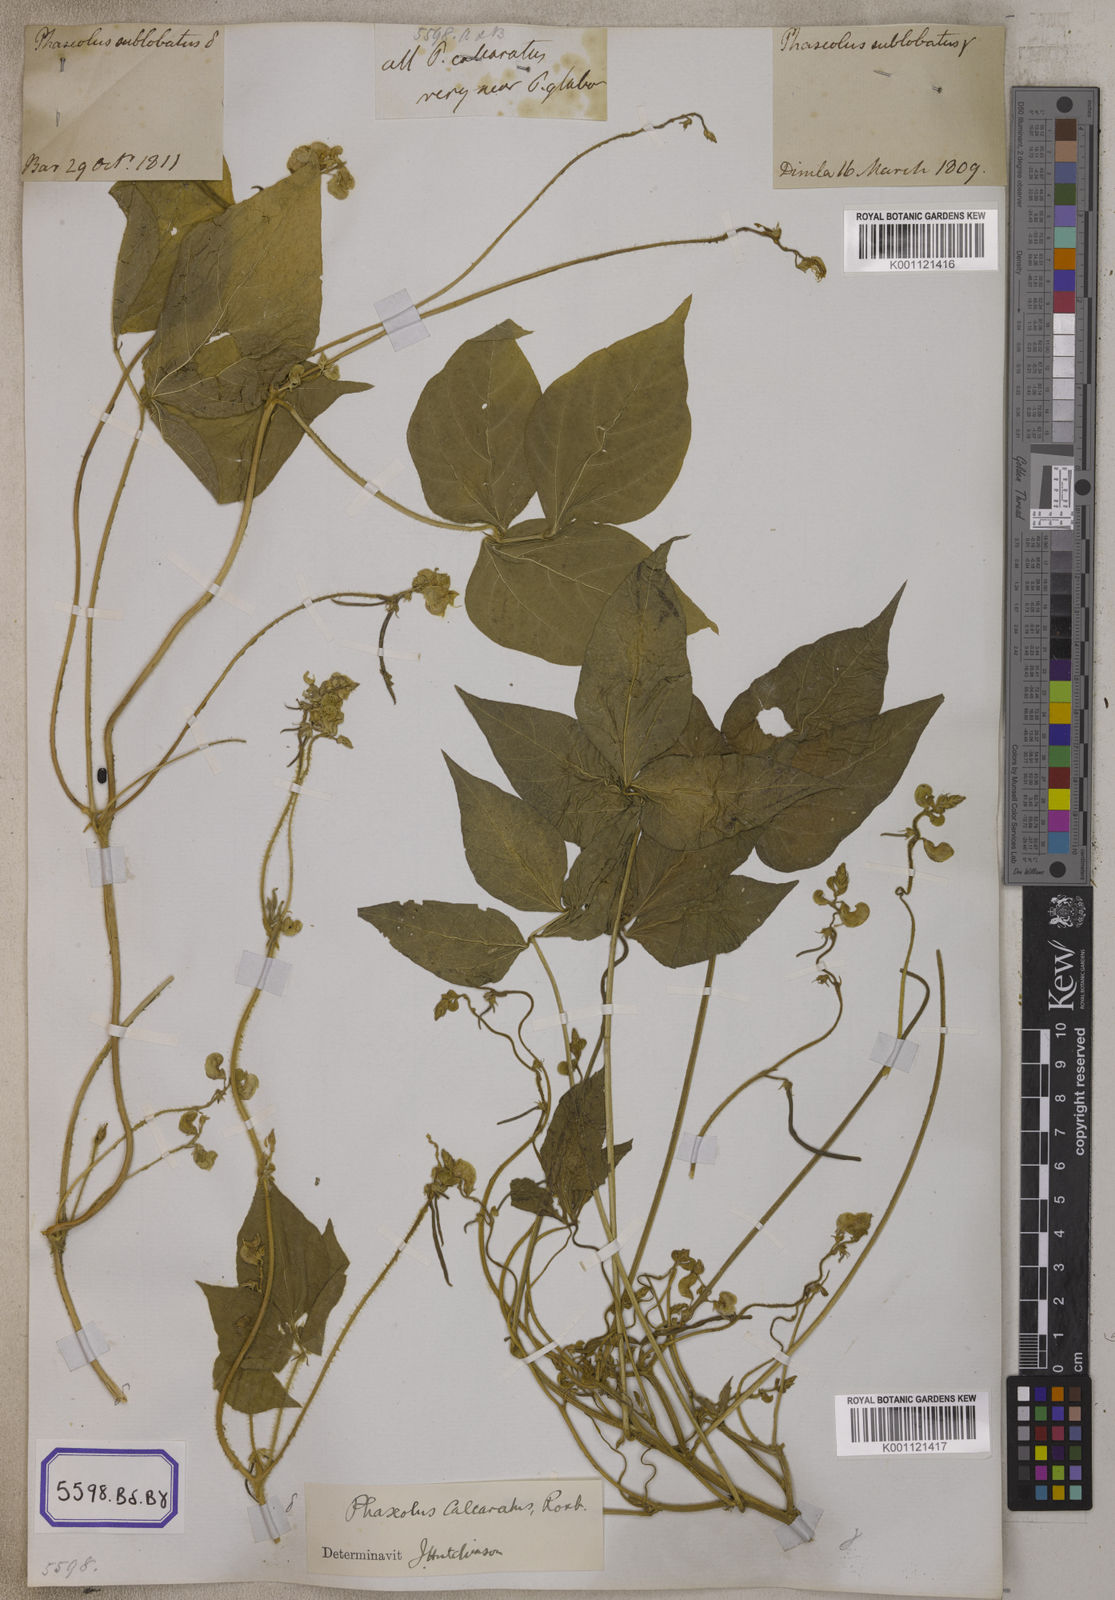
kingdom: Plantae
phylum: Tracheophyta
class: Magnoliopsida
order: Fabales
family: Fabaceae
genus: Phaseolus
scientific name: Phaseolus
